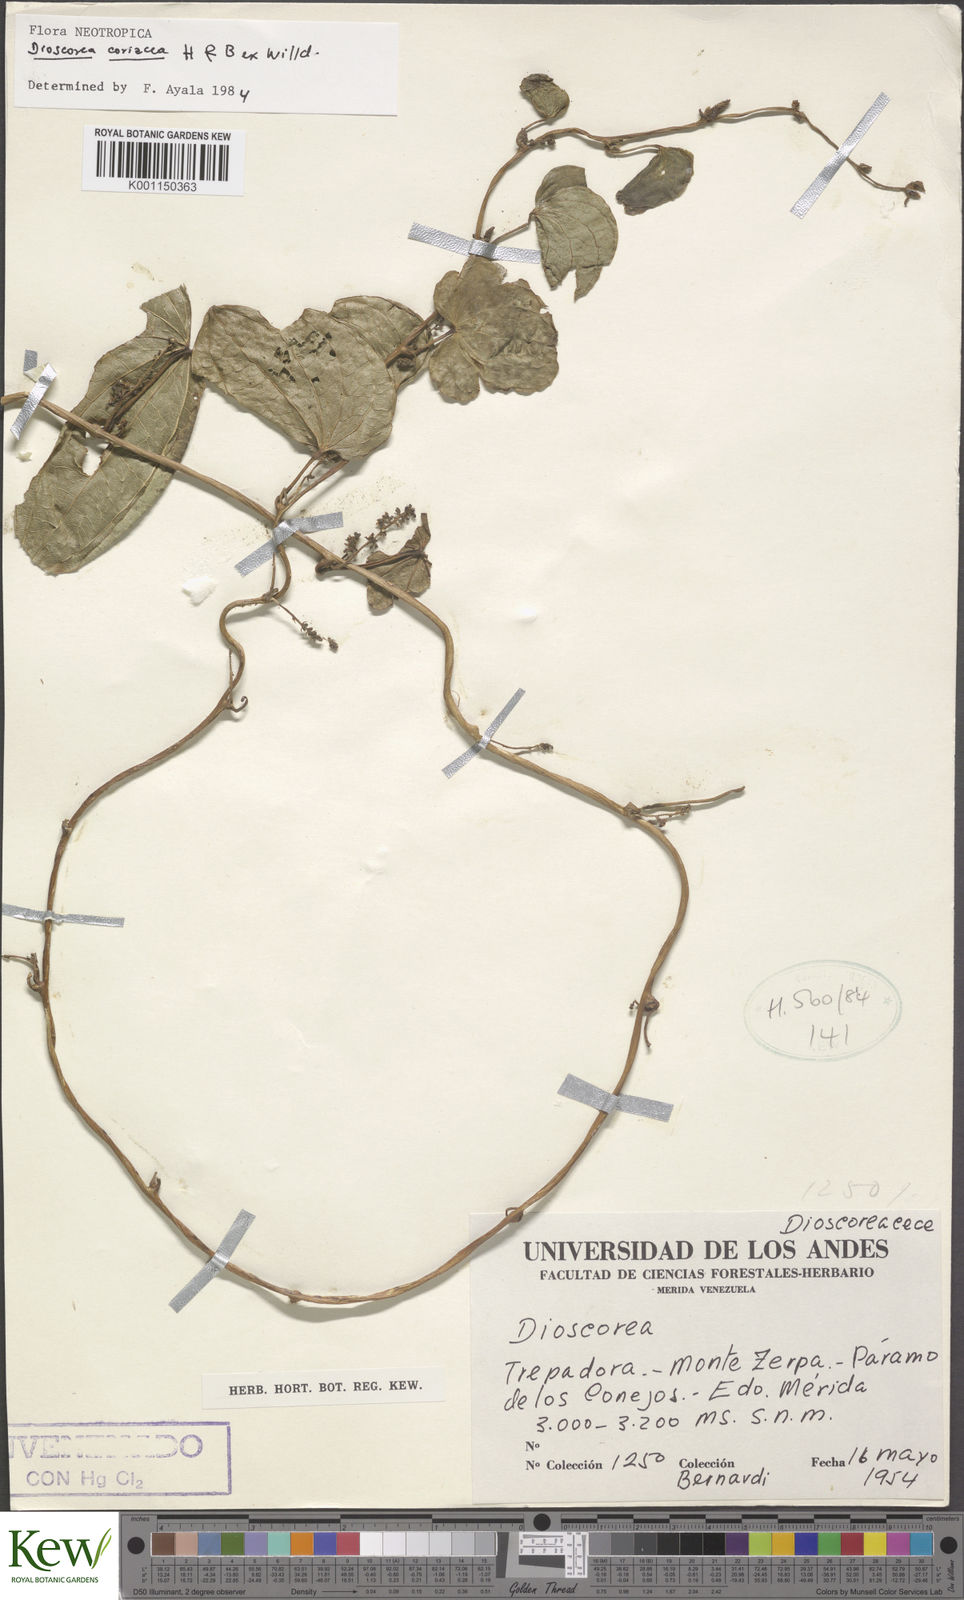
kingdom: Plantae
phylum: Tracheophyta
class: Liliopsida
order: Dioscoreales
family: Dioscoreaceae
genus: Dioscorea
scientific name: Dioscorea coriacea
